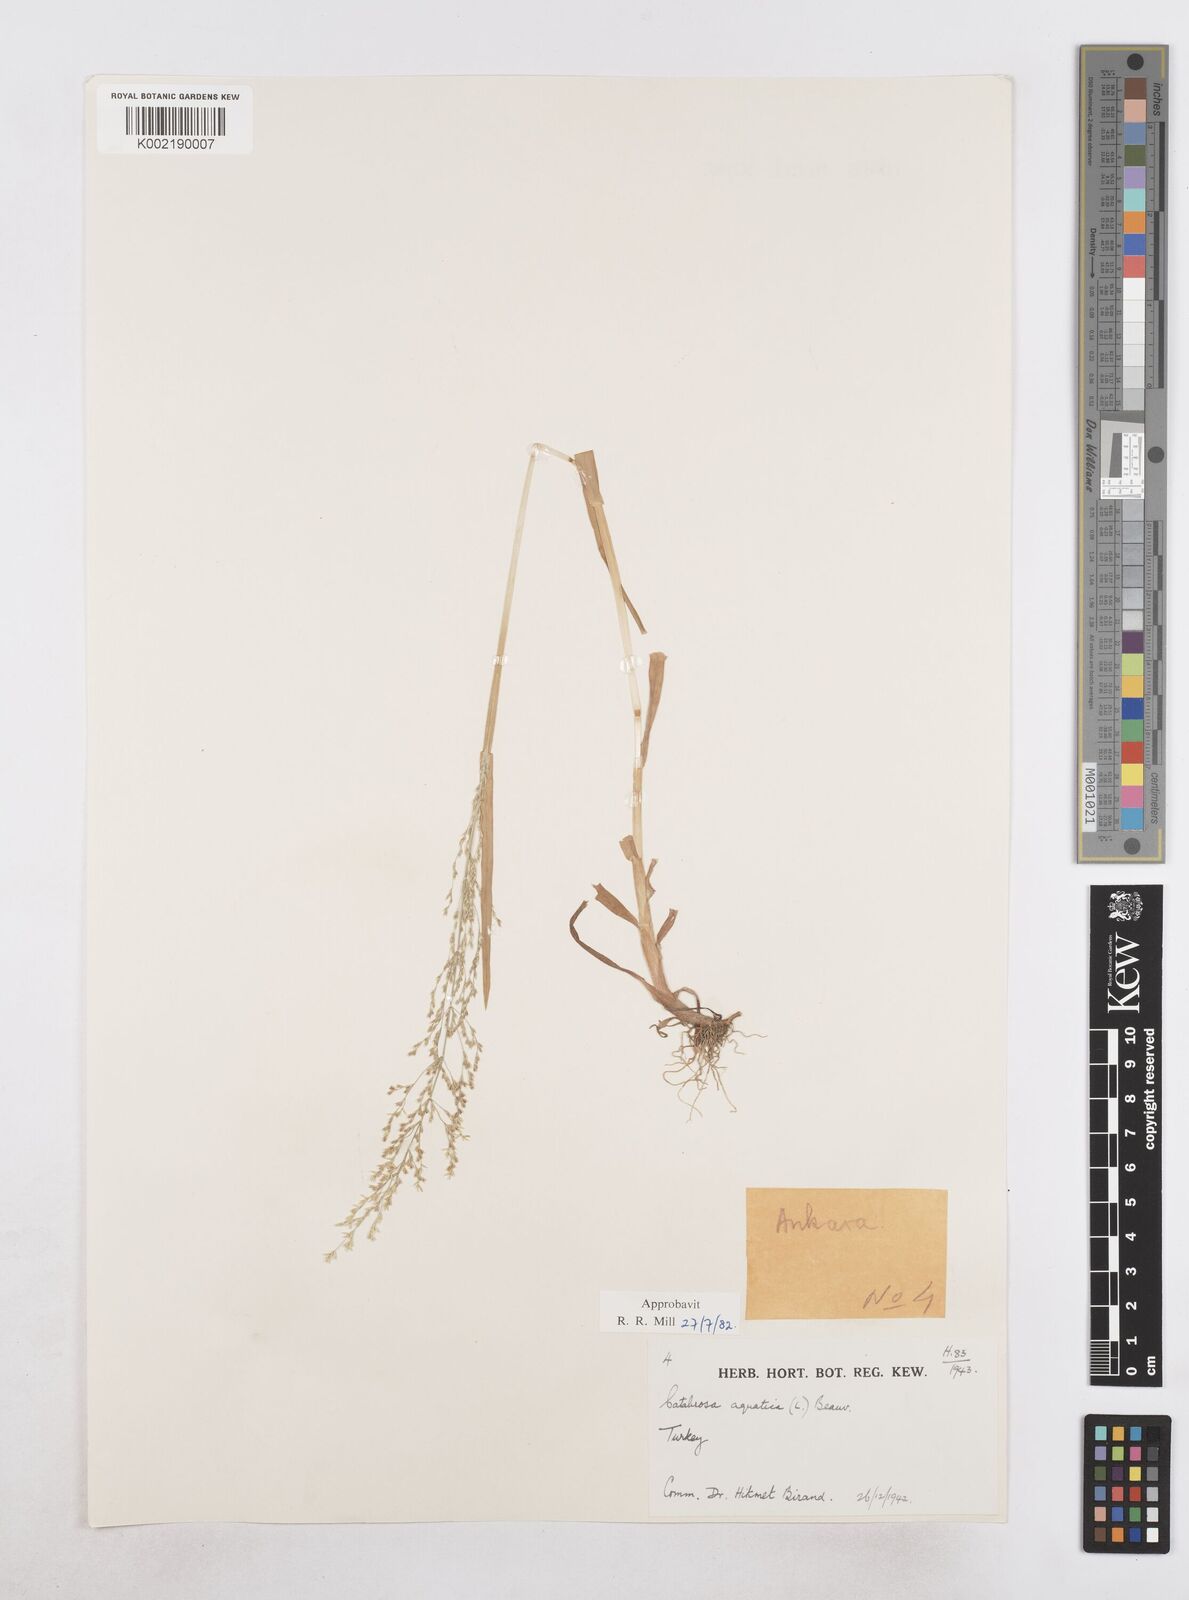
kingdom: Plantae
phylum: Tracheophyta
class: Liliopsida
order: Poales
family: Poaceae
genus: Catabrosa
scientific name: Catabrosa aquatica
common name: Whorl-grass
